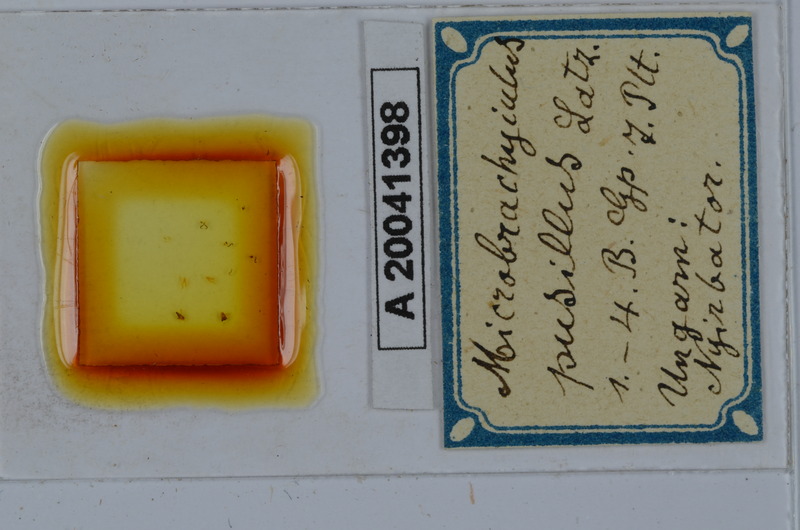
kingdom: Animalia
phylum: Arthropoda
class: Diplopoda
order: Julida
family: Julidae
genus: Brachyiulus
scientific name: Brachyiulus pusillus
